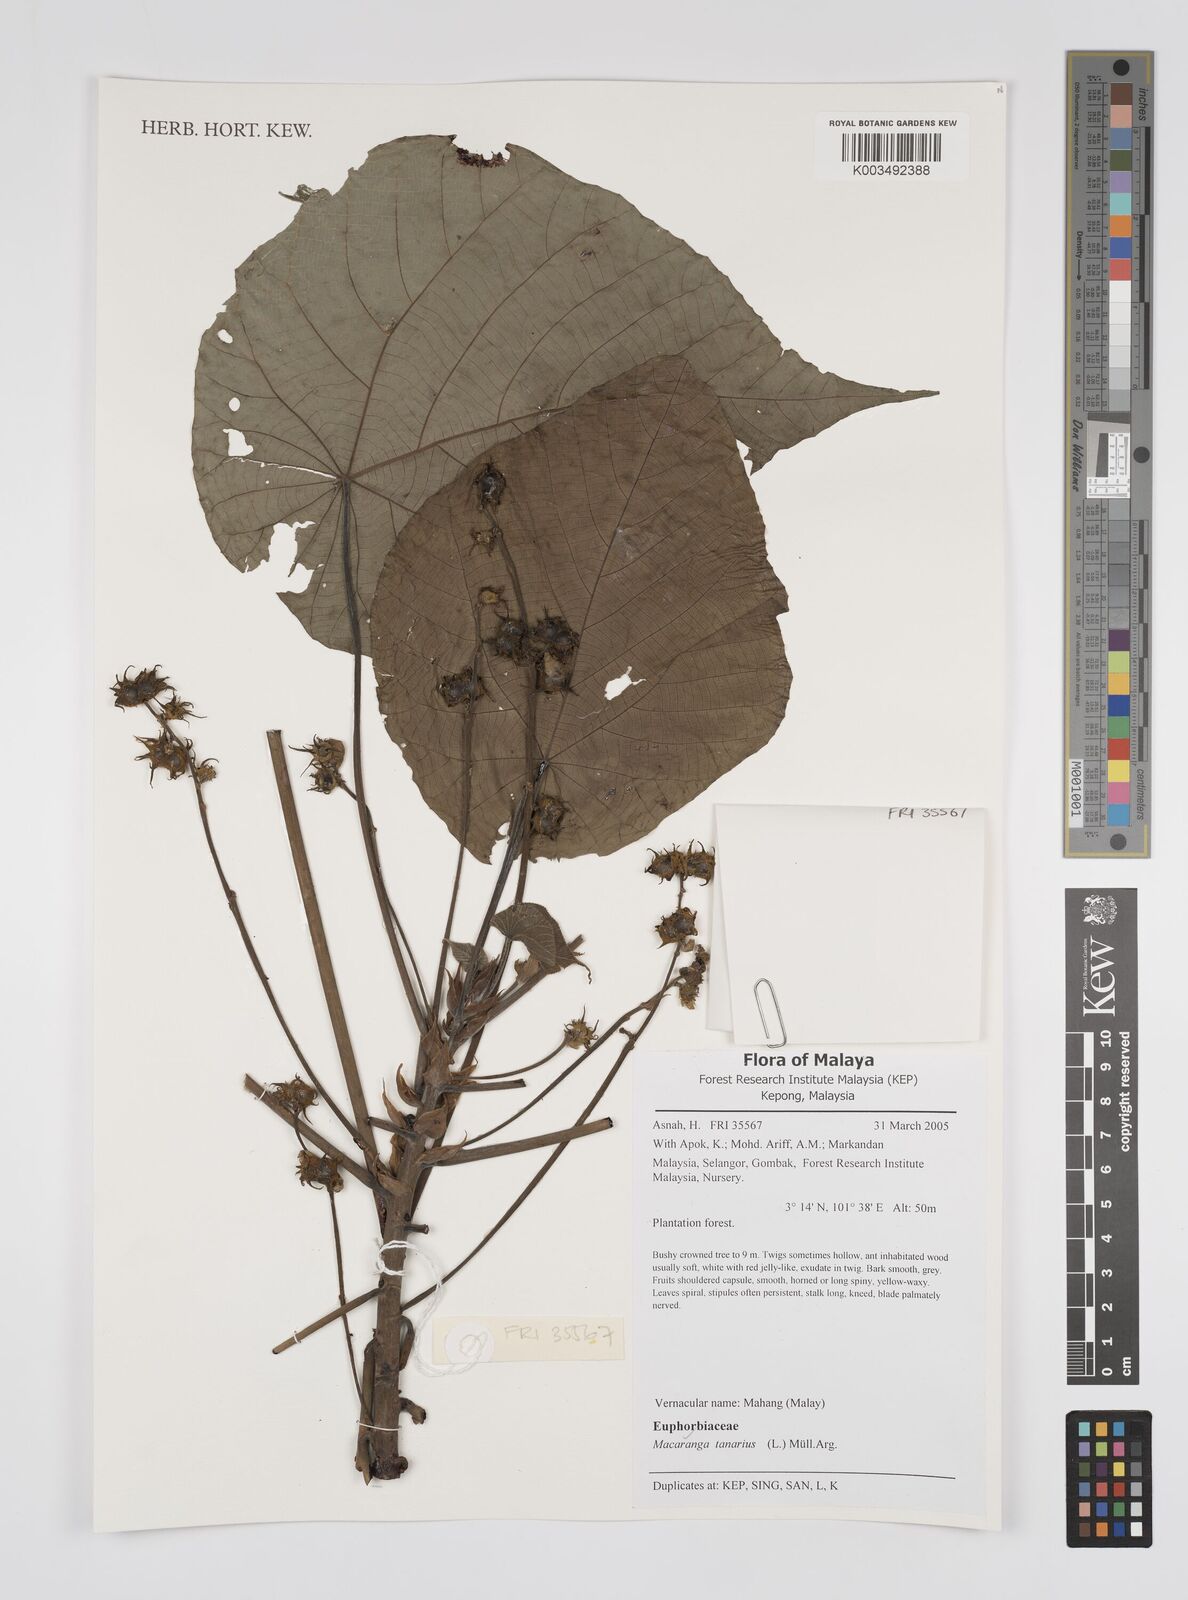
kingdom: Plantae
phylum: Tracheophyta
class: Magnoliopsida
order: Malpighiales
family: Euphorbiaceae
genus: Macaranga
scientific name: Macaranga tanarius
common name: Parasol leaf tree
